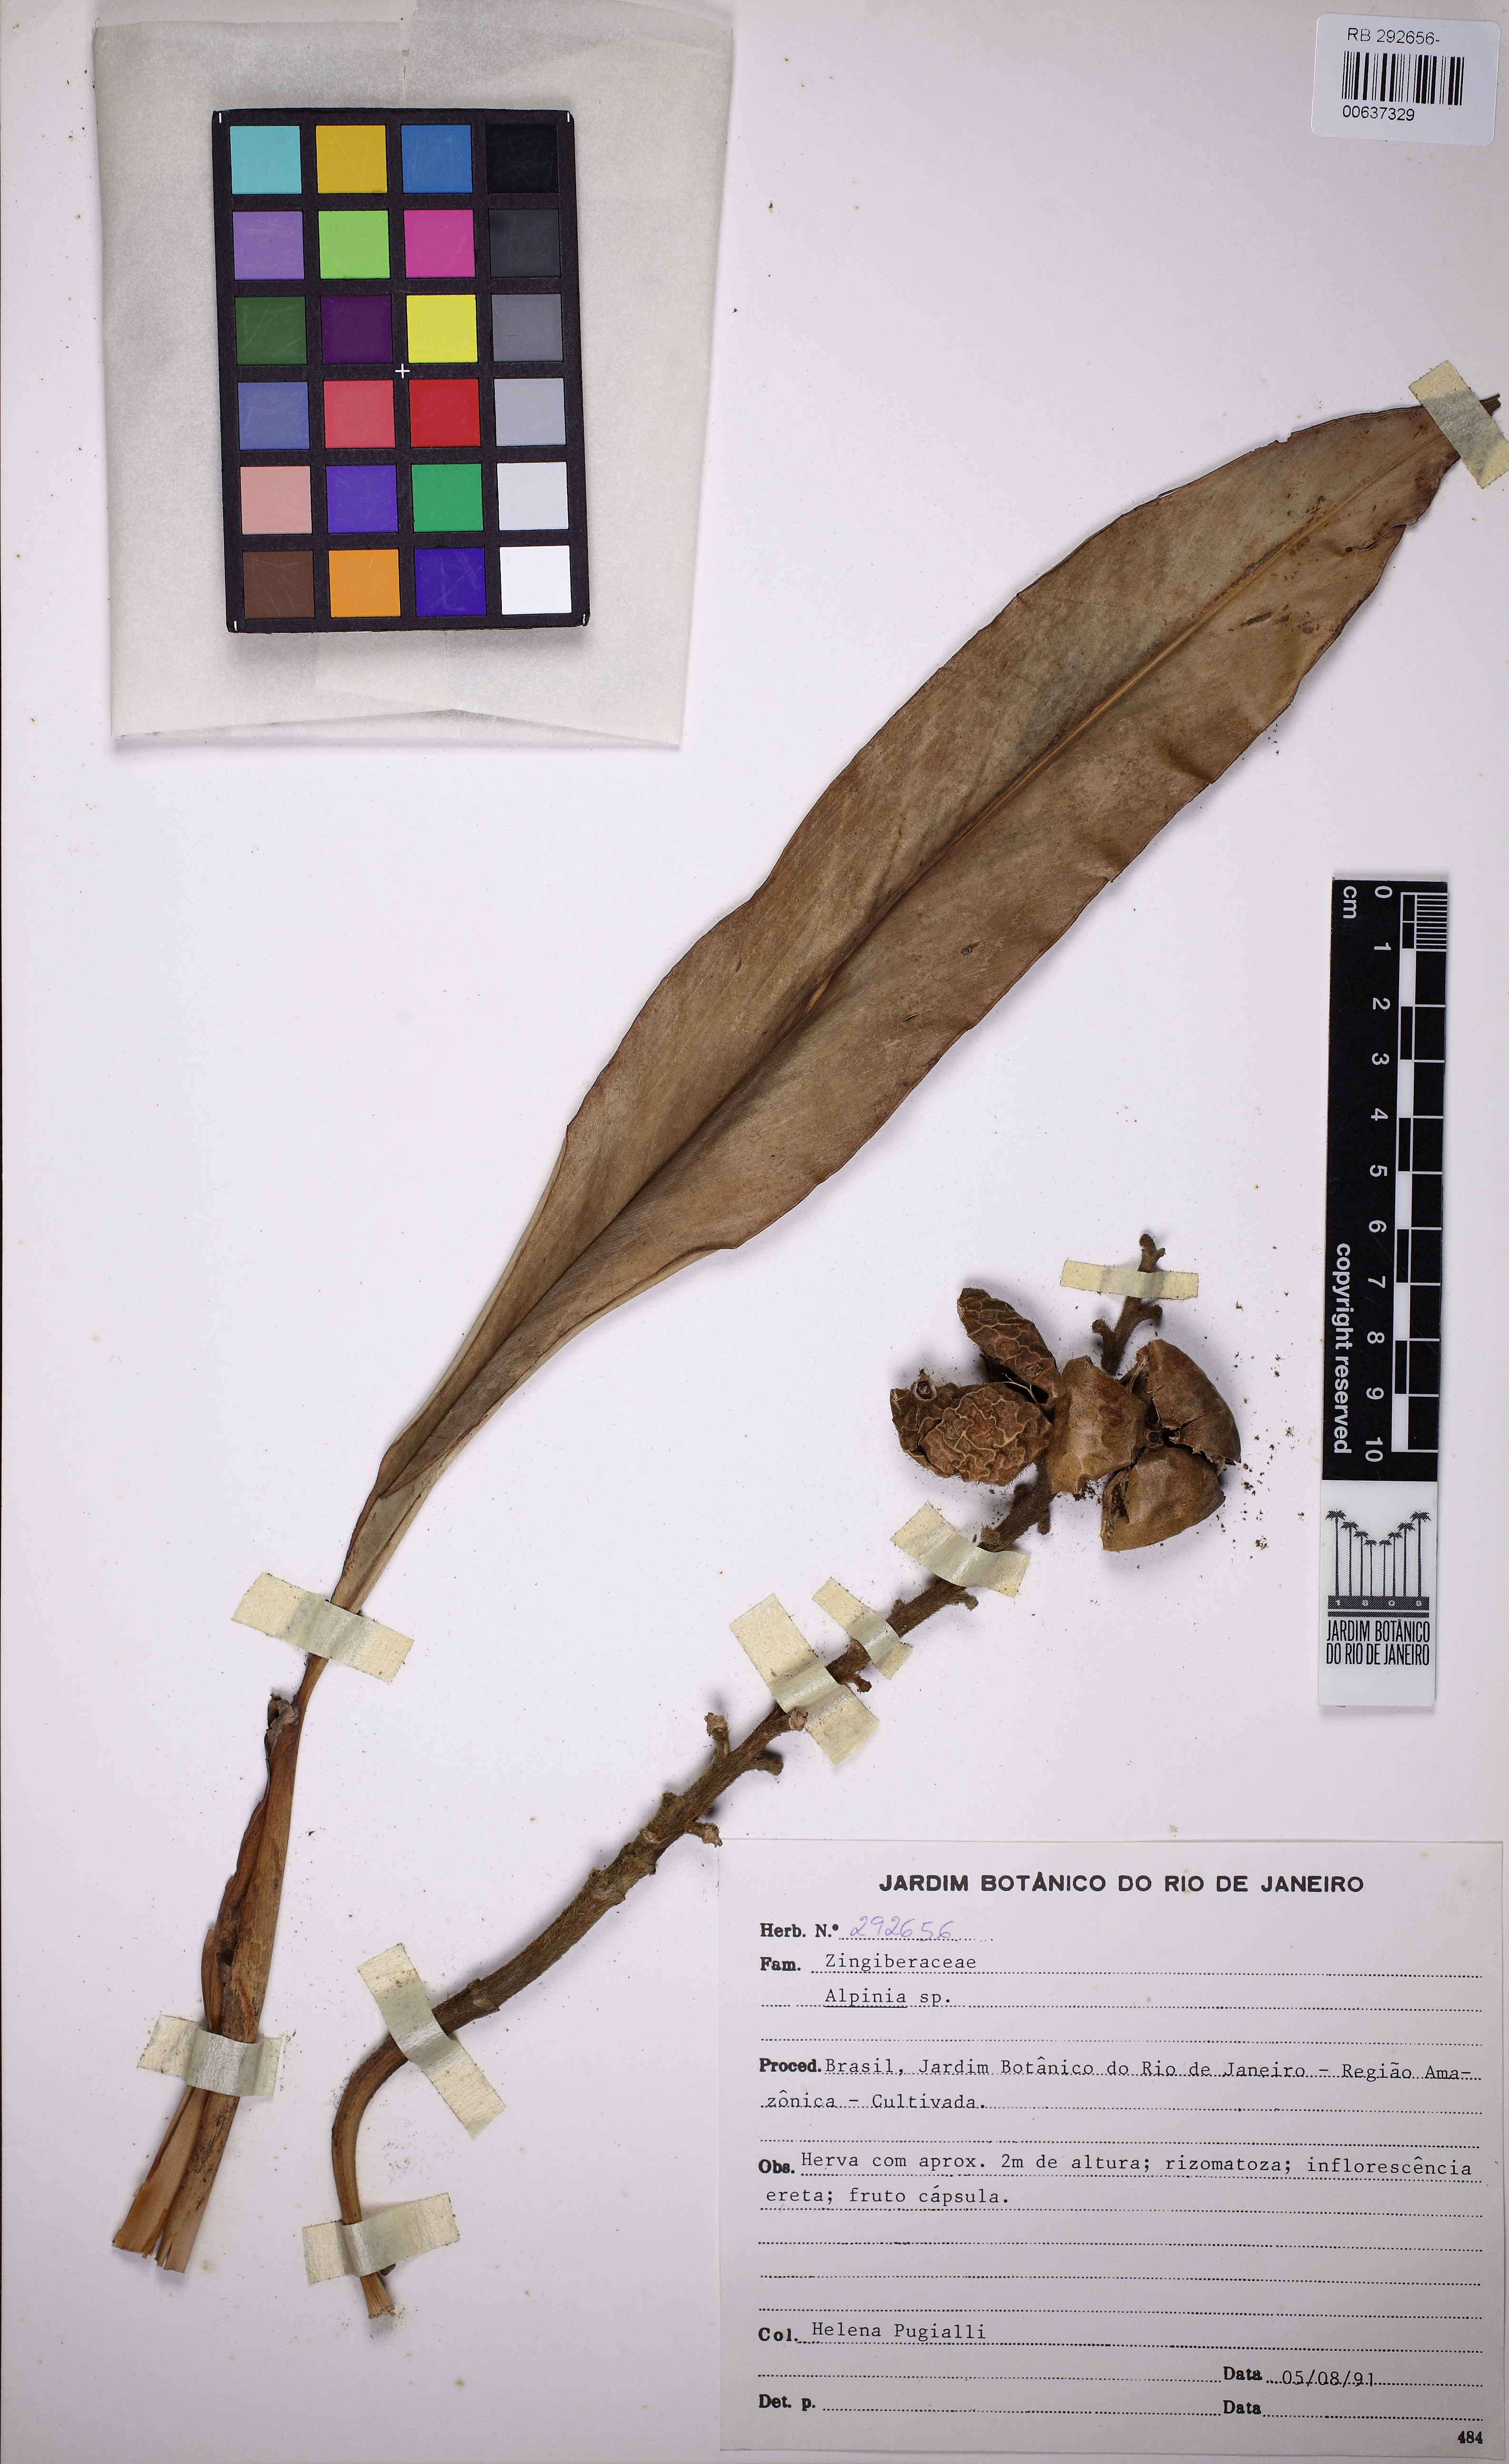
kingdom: Plantae
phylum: Tracheophyta
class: Liliopsida
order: Zingiberales
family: Zingiberaceae
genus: Alpinia
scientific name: Alpinia
